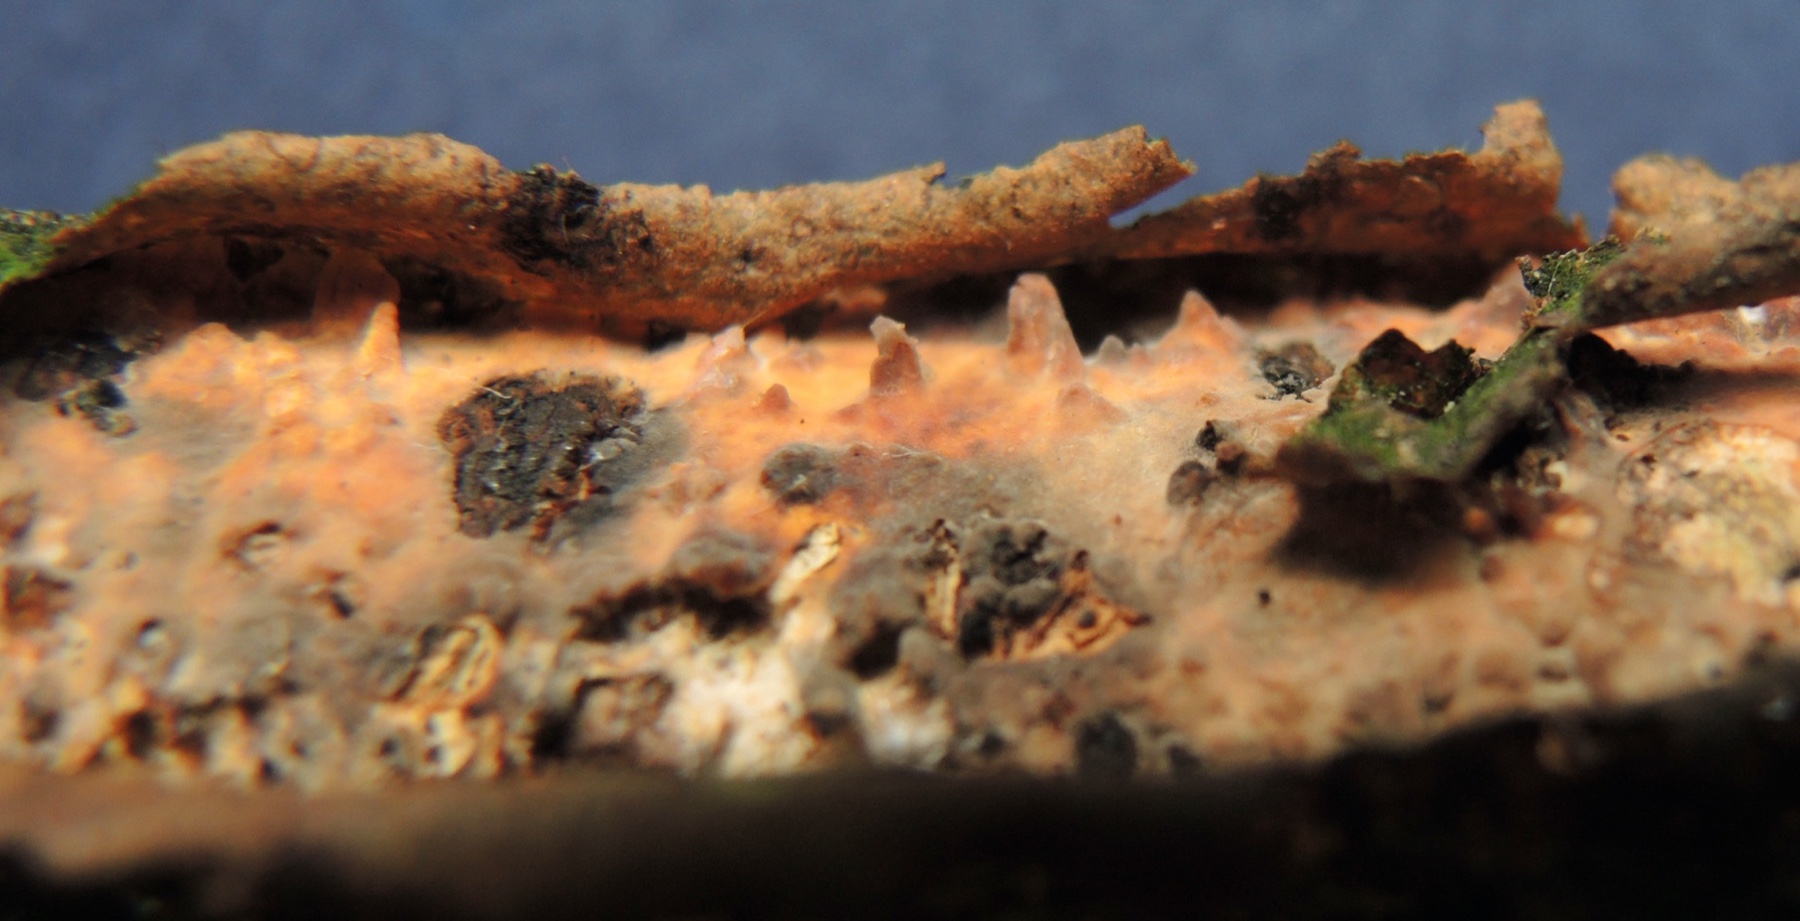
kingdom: Fungi
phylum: Basidiomycota
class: Agaricomycetes
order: Russulales
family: Peniophoraceae
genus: Peniophora
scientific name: Peniophora laeta
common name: tandet voksskind
